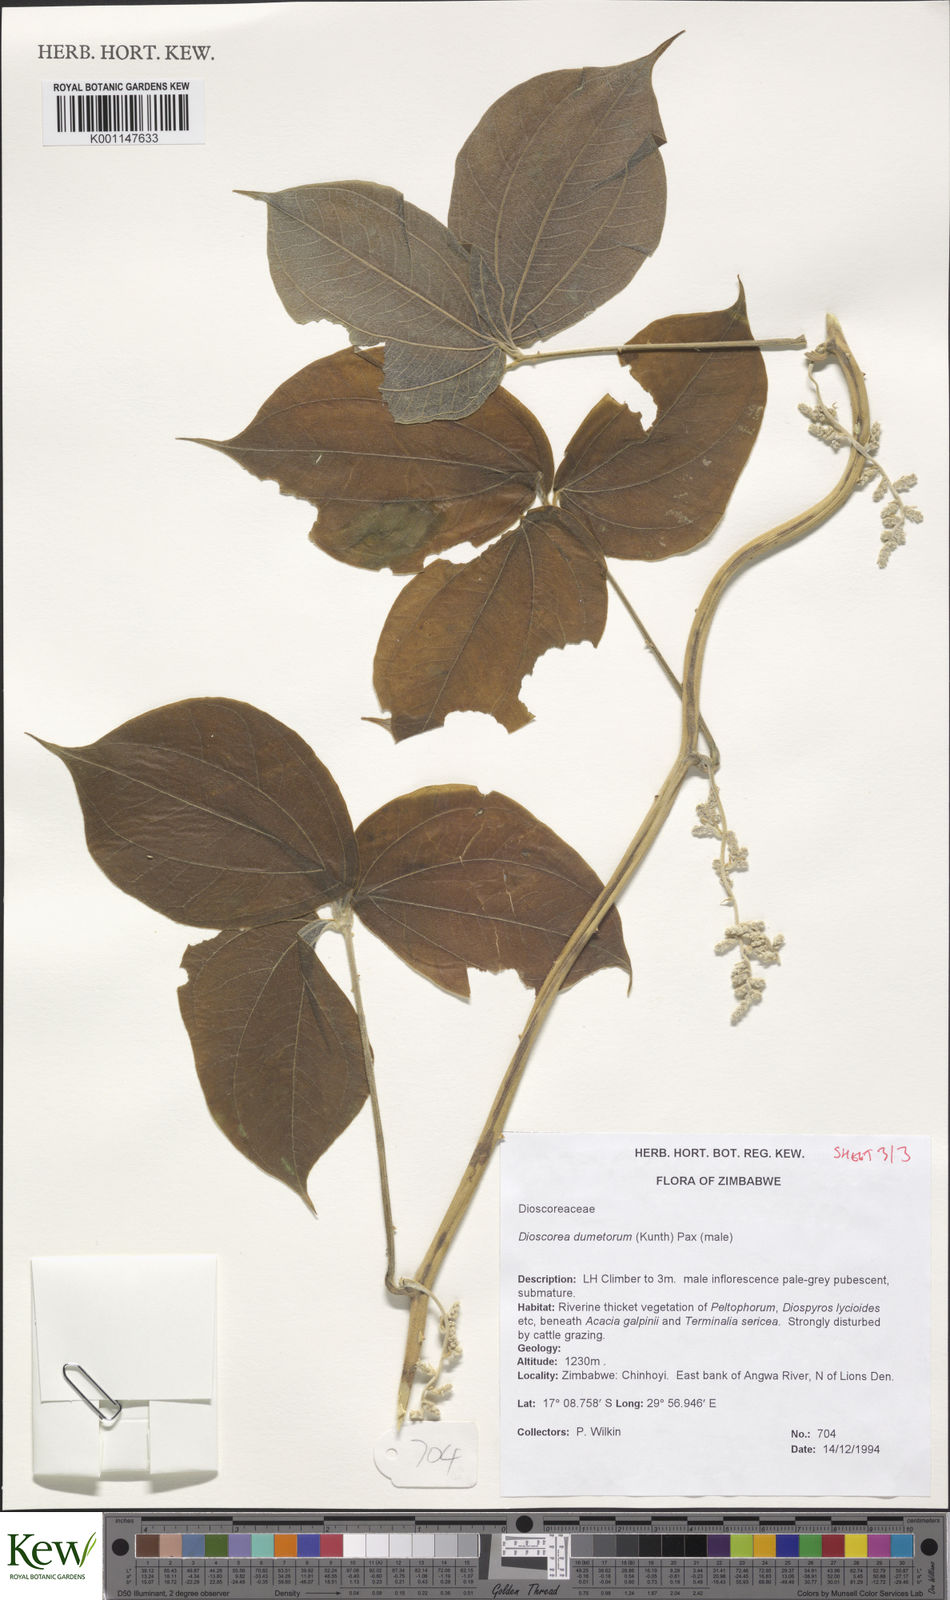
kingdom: Plantae
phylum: Tracheophyta
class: Liliopsida
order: Dioscoreales
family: Dioscoreaceae
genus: Dioscorea
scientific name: Dioscorea dumetorum
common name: African bitter yam
